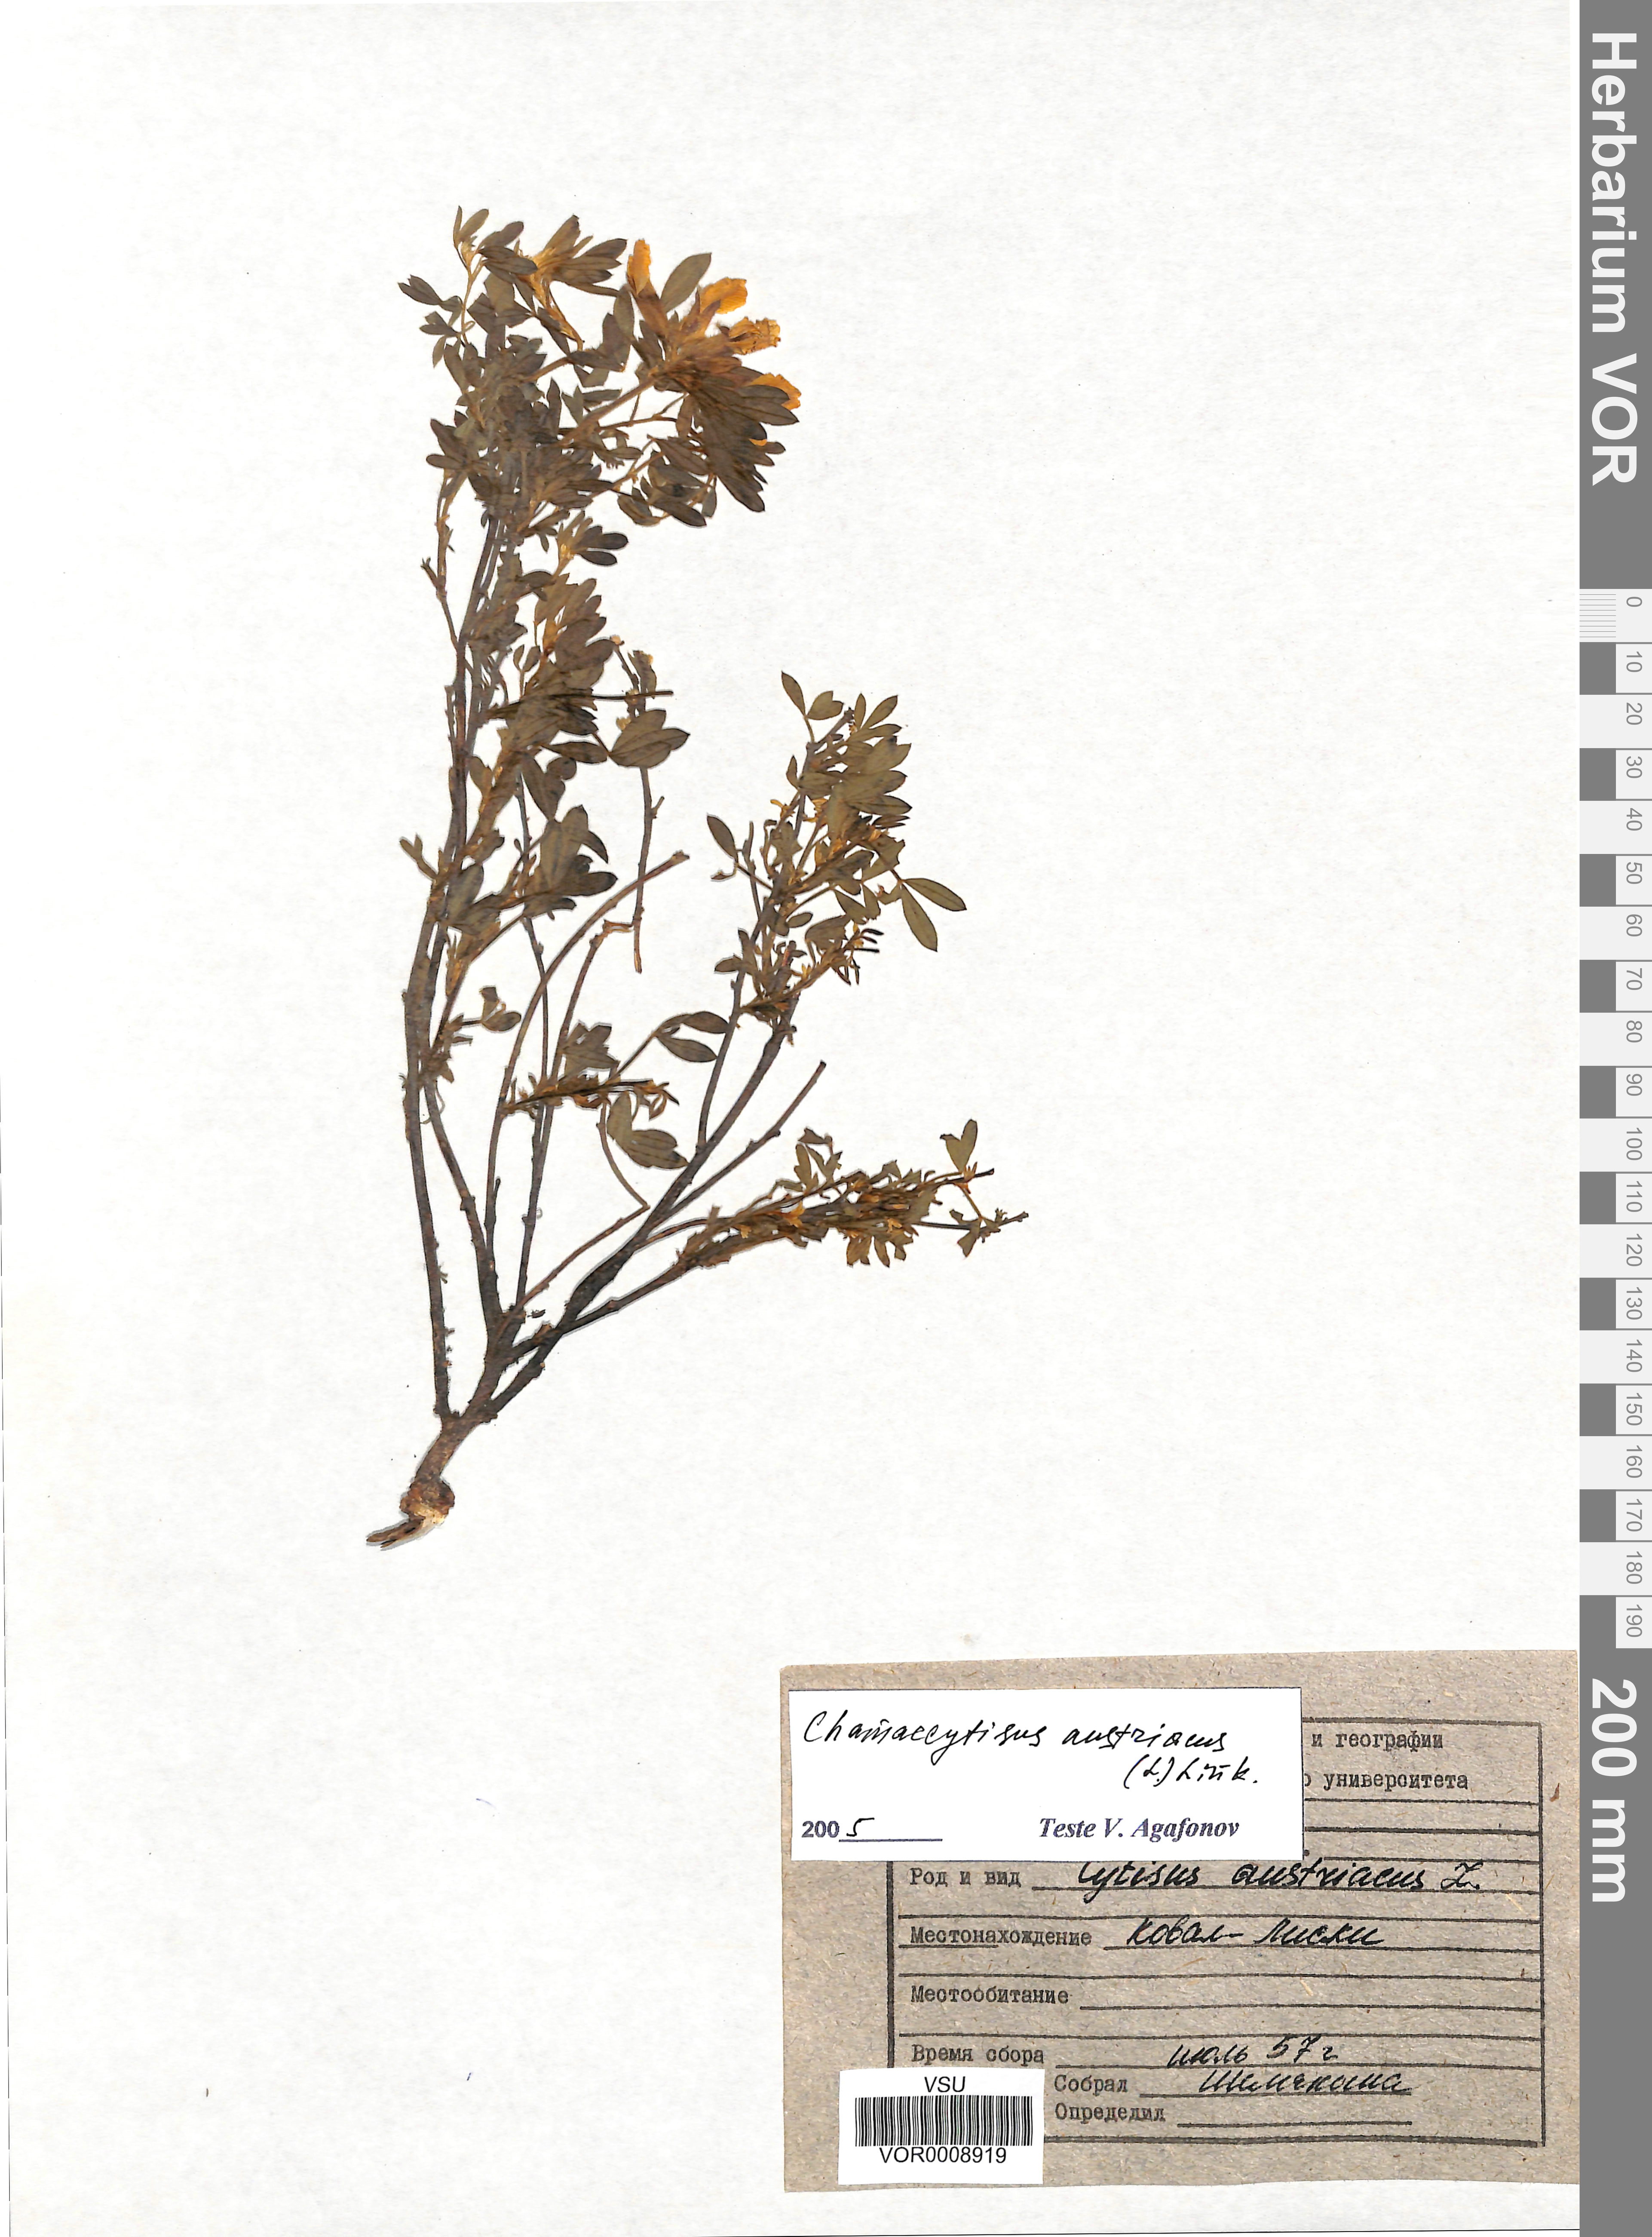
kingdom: Plantae
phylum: Tracheophyta
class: Magnoliopsida
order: Fabales
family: Fabaceae
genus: Chamaecytisus
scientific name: Chamaecytisus austriacus
